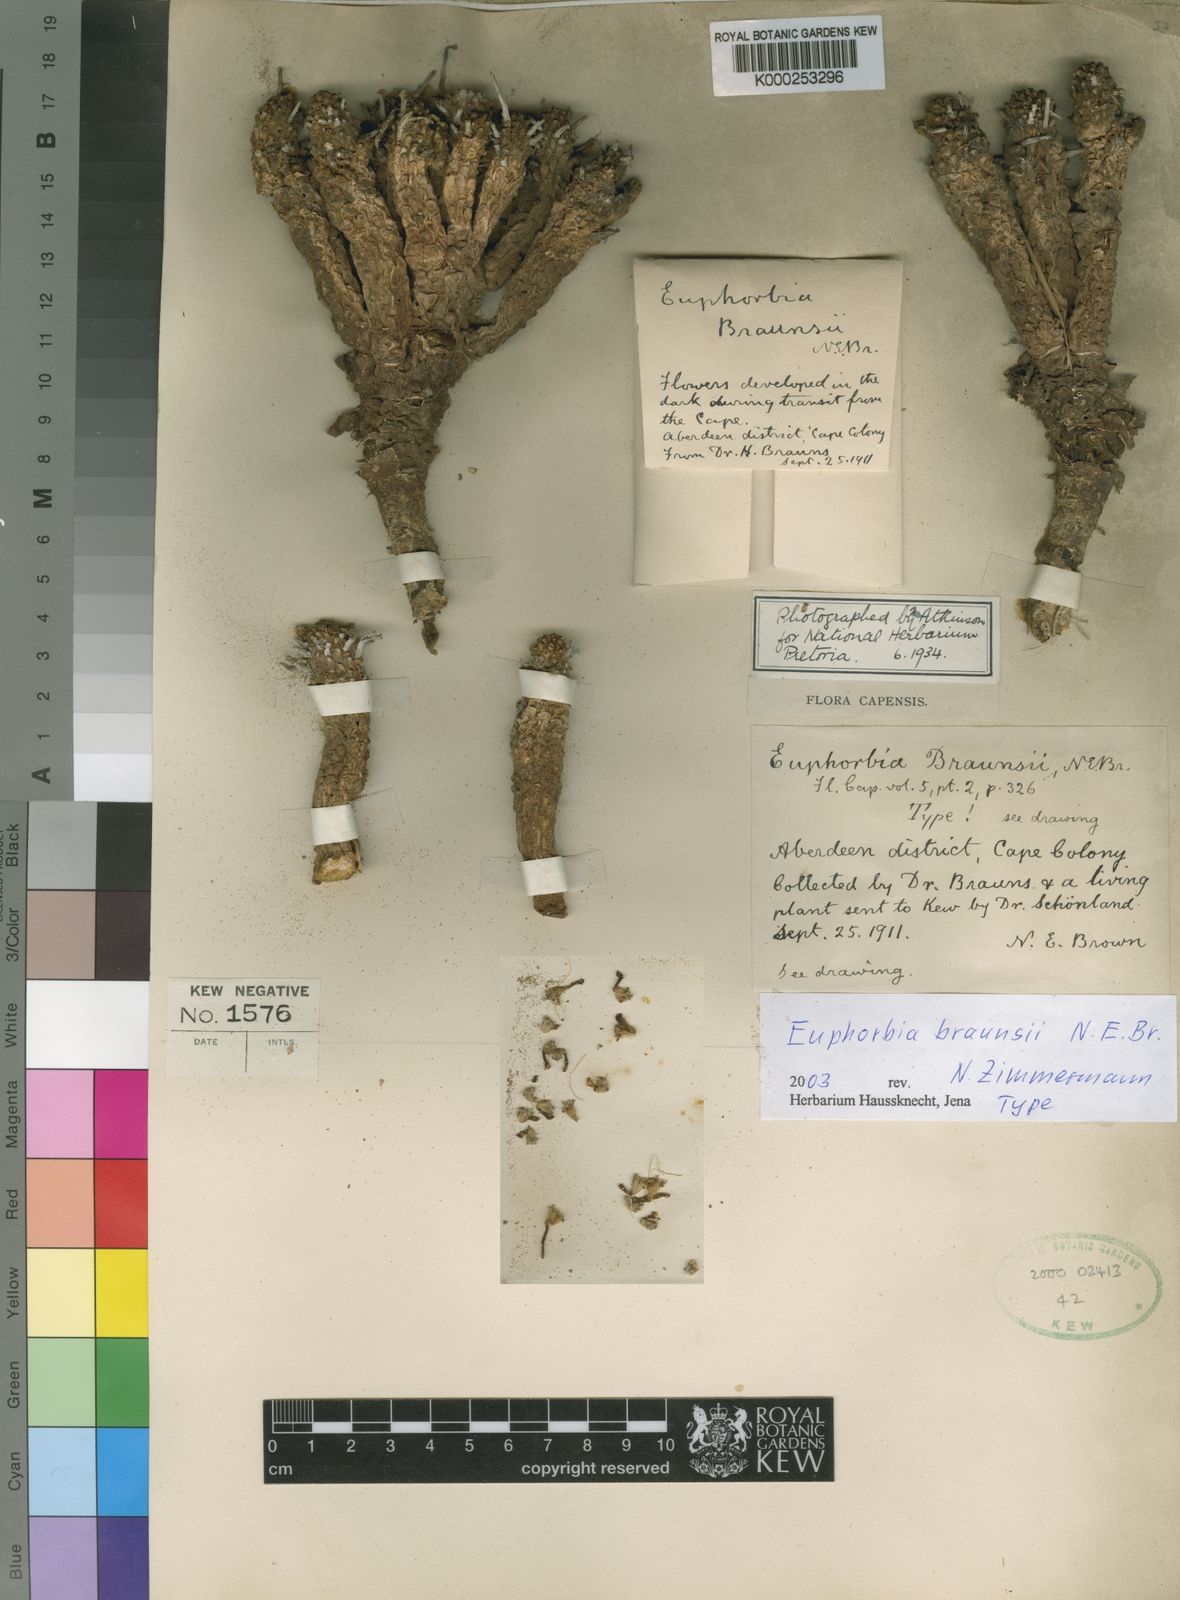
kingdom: Plantae
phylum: Tracheophyta
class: Magnoliopsida
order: Malpighiales
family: Euphorbiaceae
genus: Euphorbia
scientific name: Euphorbia braunsii
